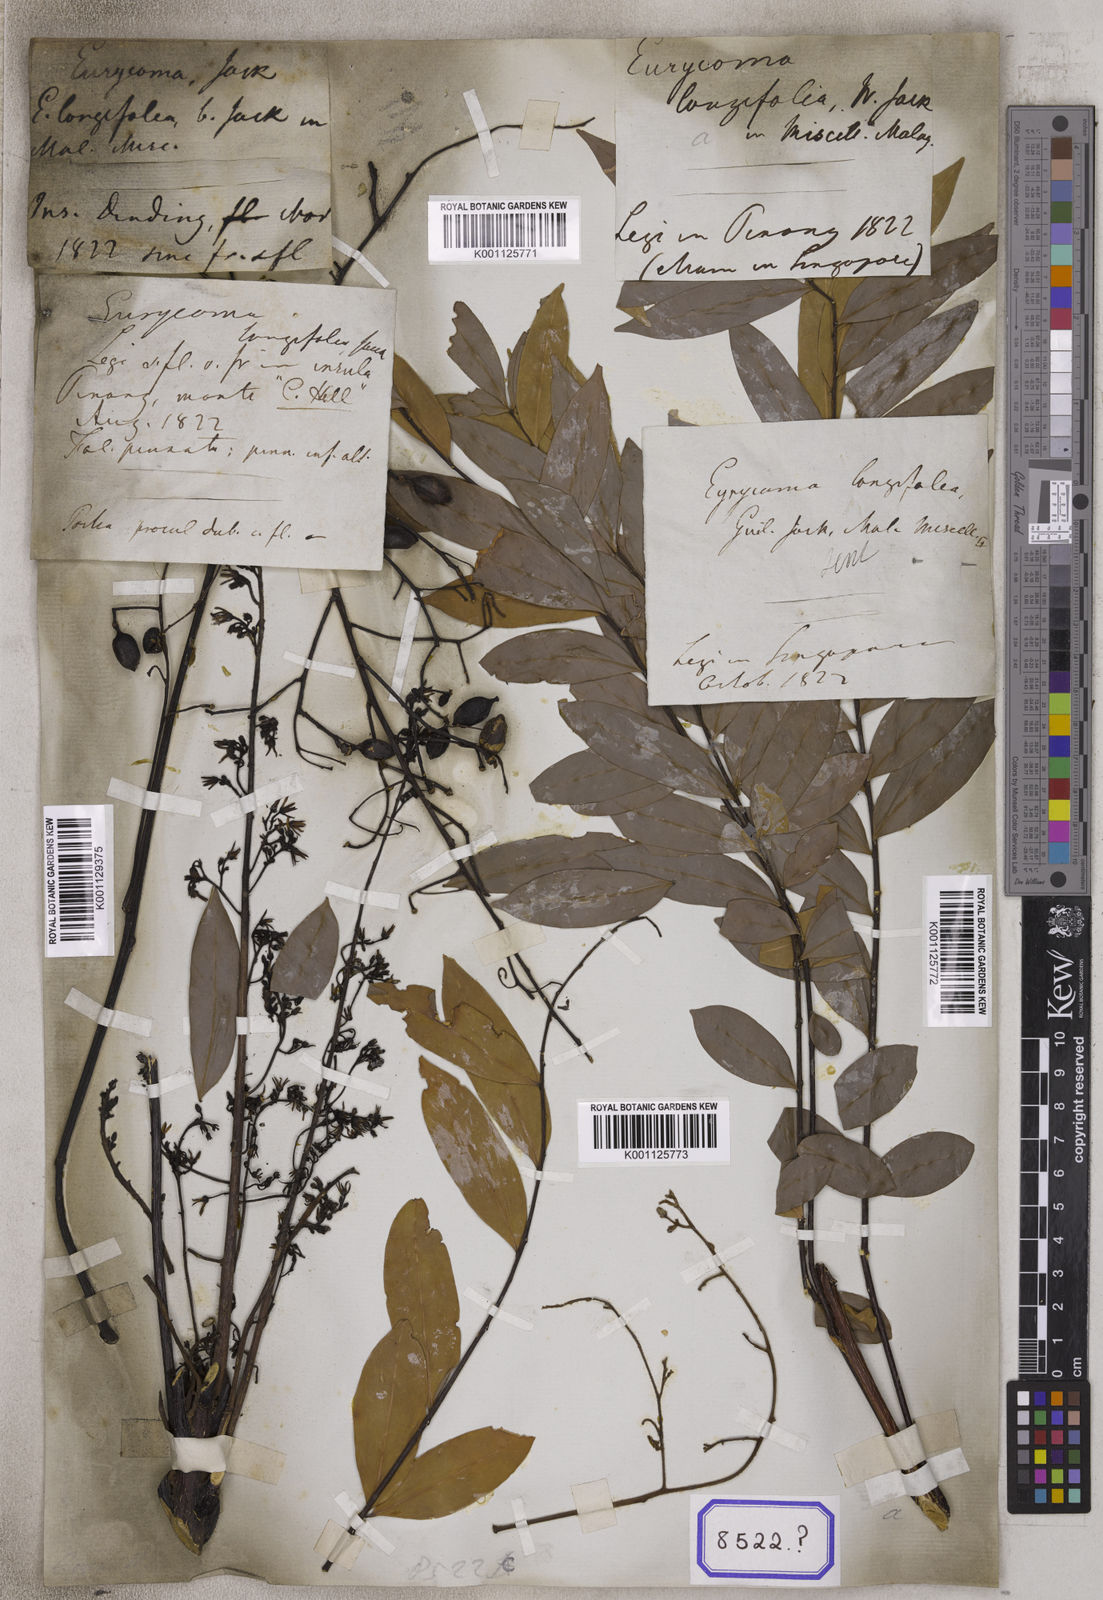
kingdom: Plantae
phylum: Tracheophyta
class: Magnoliopsida
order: Sapindales
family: Simaroubaceae
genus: Eurycoma
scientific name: Eurycoma longifolia
